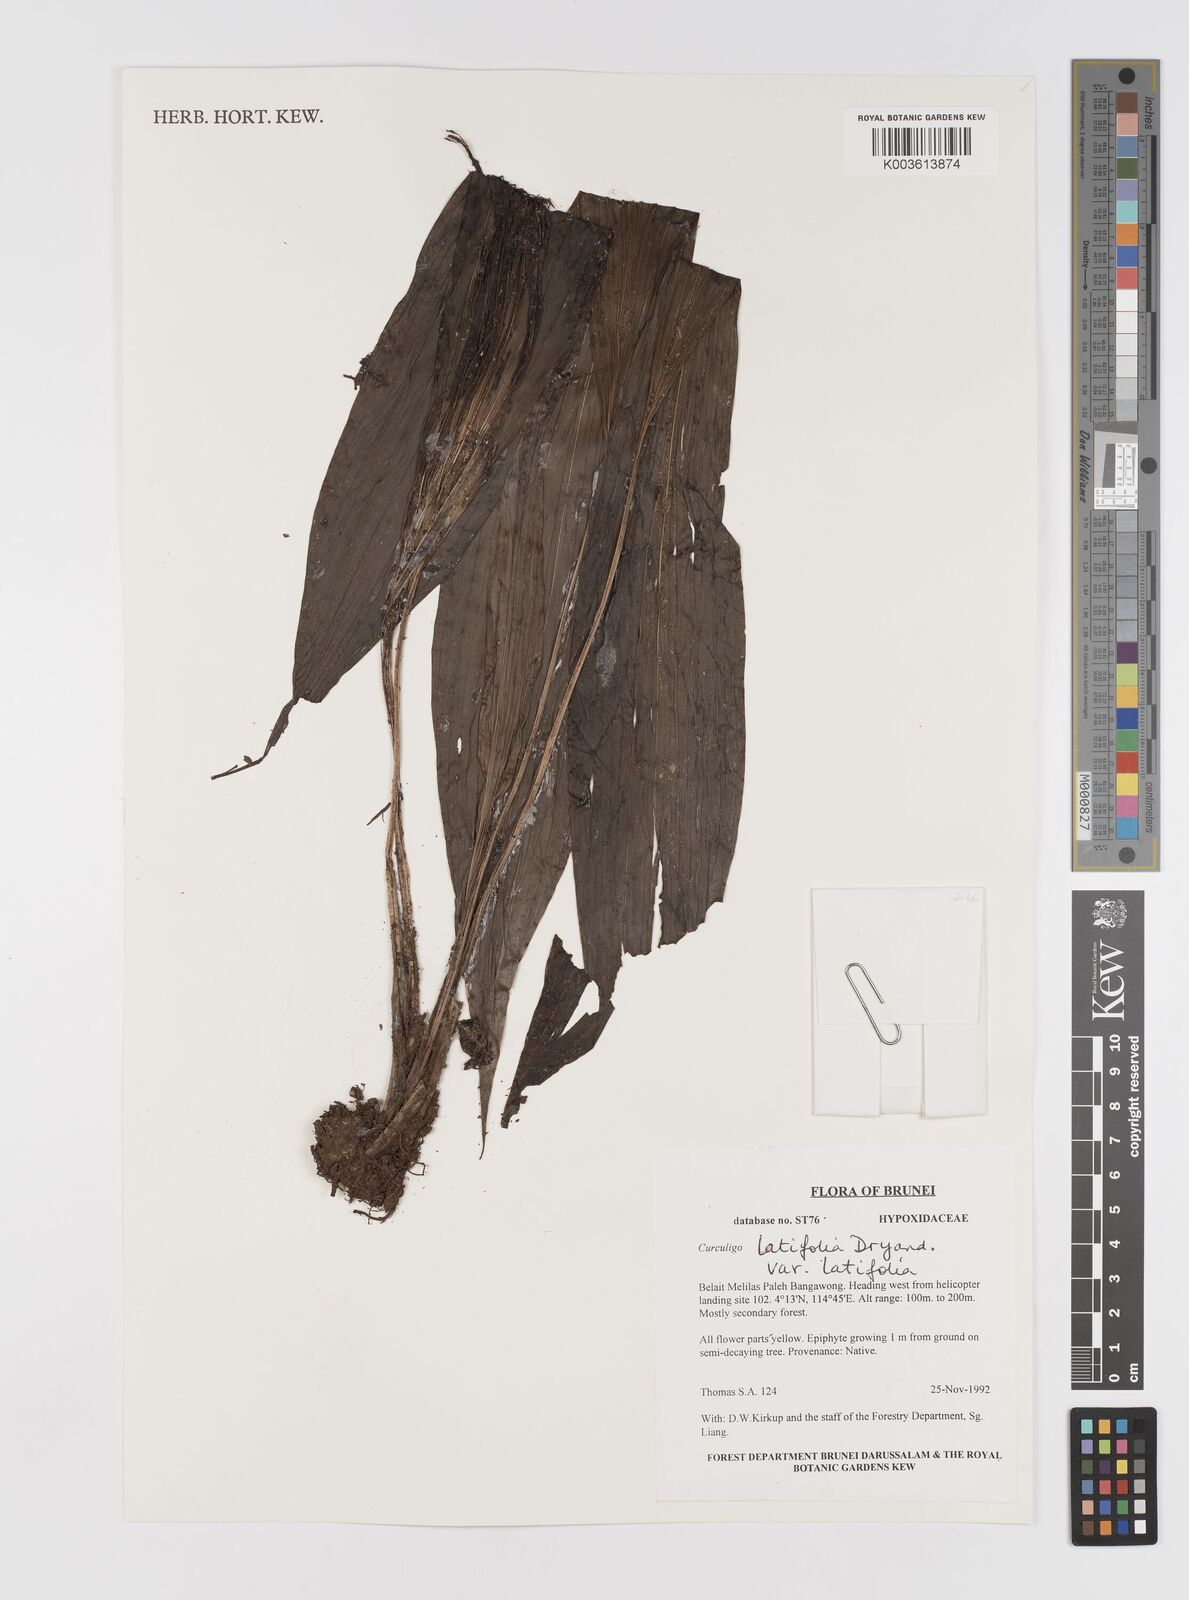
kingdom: Plantae
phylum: Tracheophyta
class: Liliopsida
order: Asparagales
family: Hypoxidaceae
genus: Curculigo
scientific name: Curculigo latifolia
